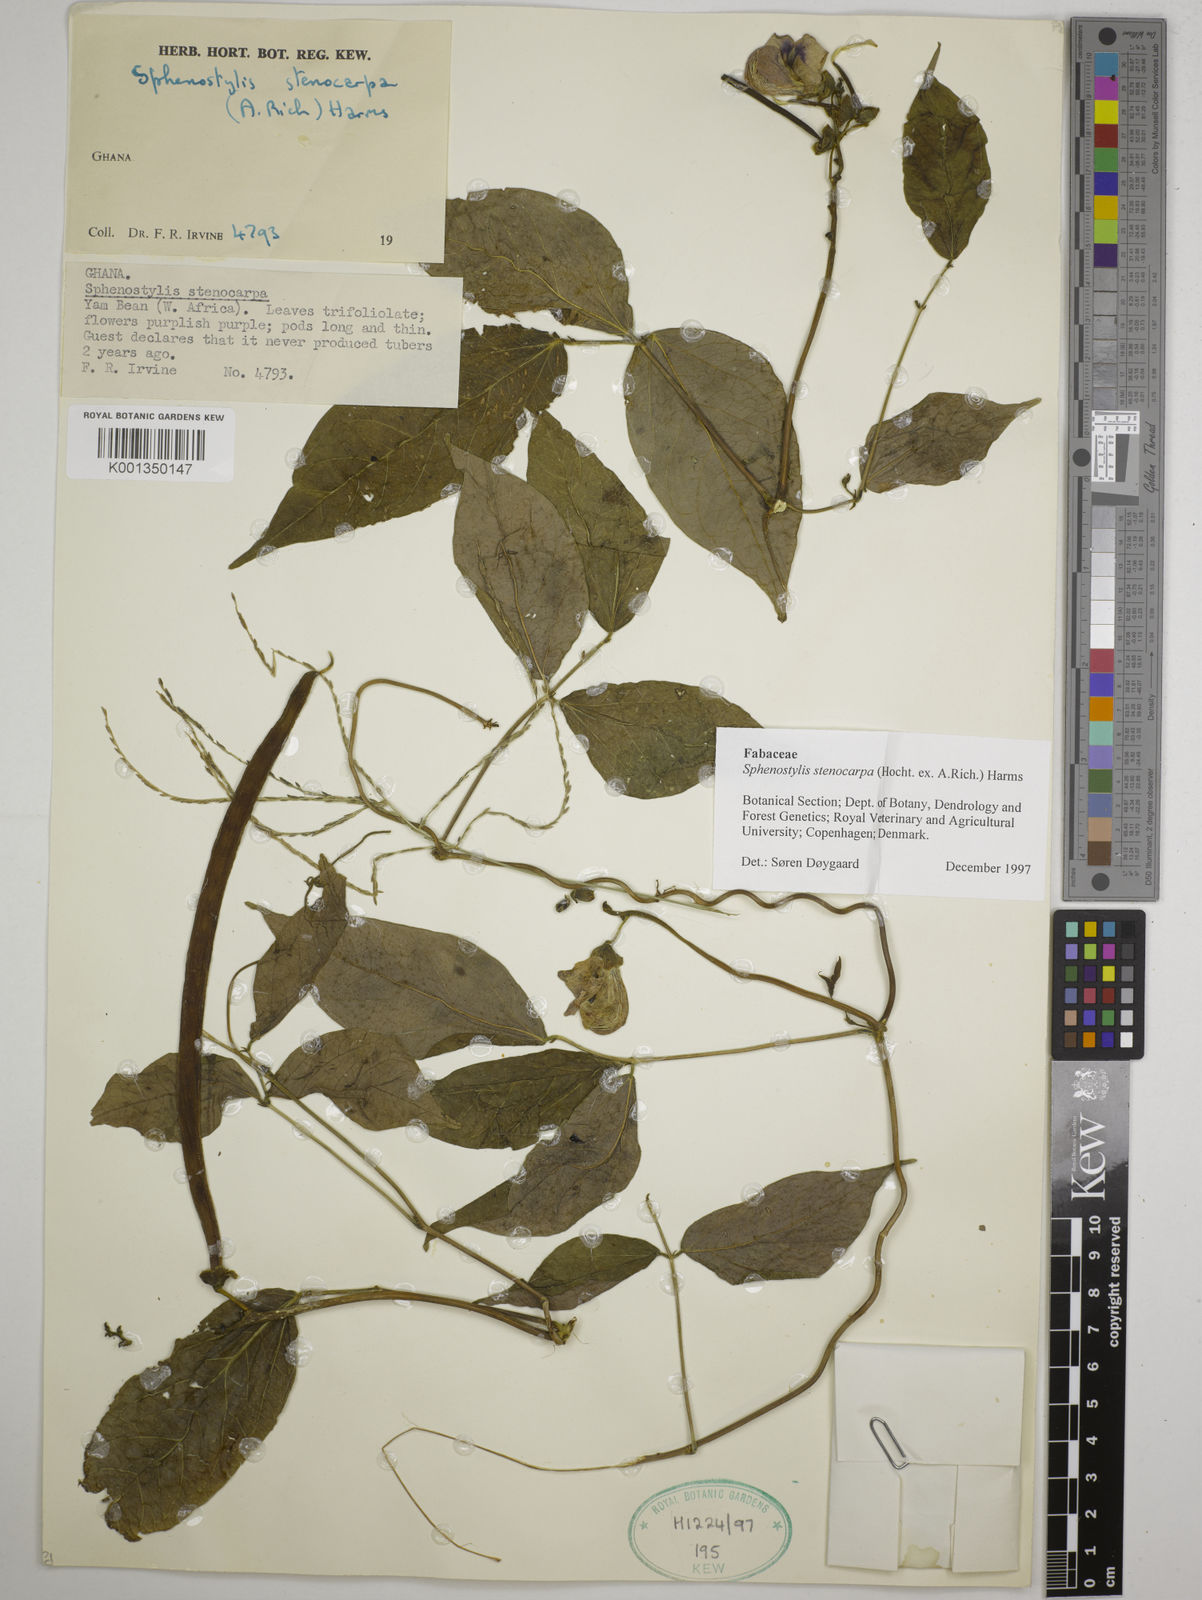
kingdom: Plantae
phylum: Tracheophyta
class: Magnoliopsida
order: Fabales
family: Fabaceae
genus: Sphenostylis
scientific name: Sphenostylis stenocarpa
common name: Yam-pea
